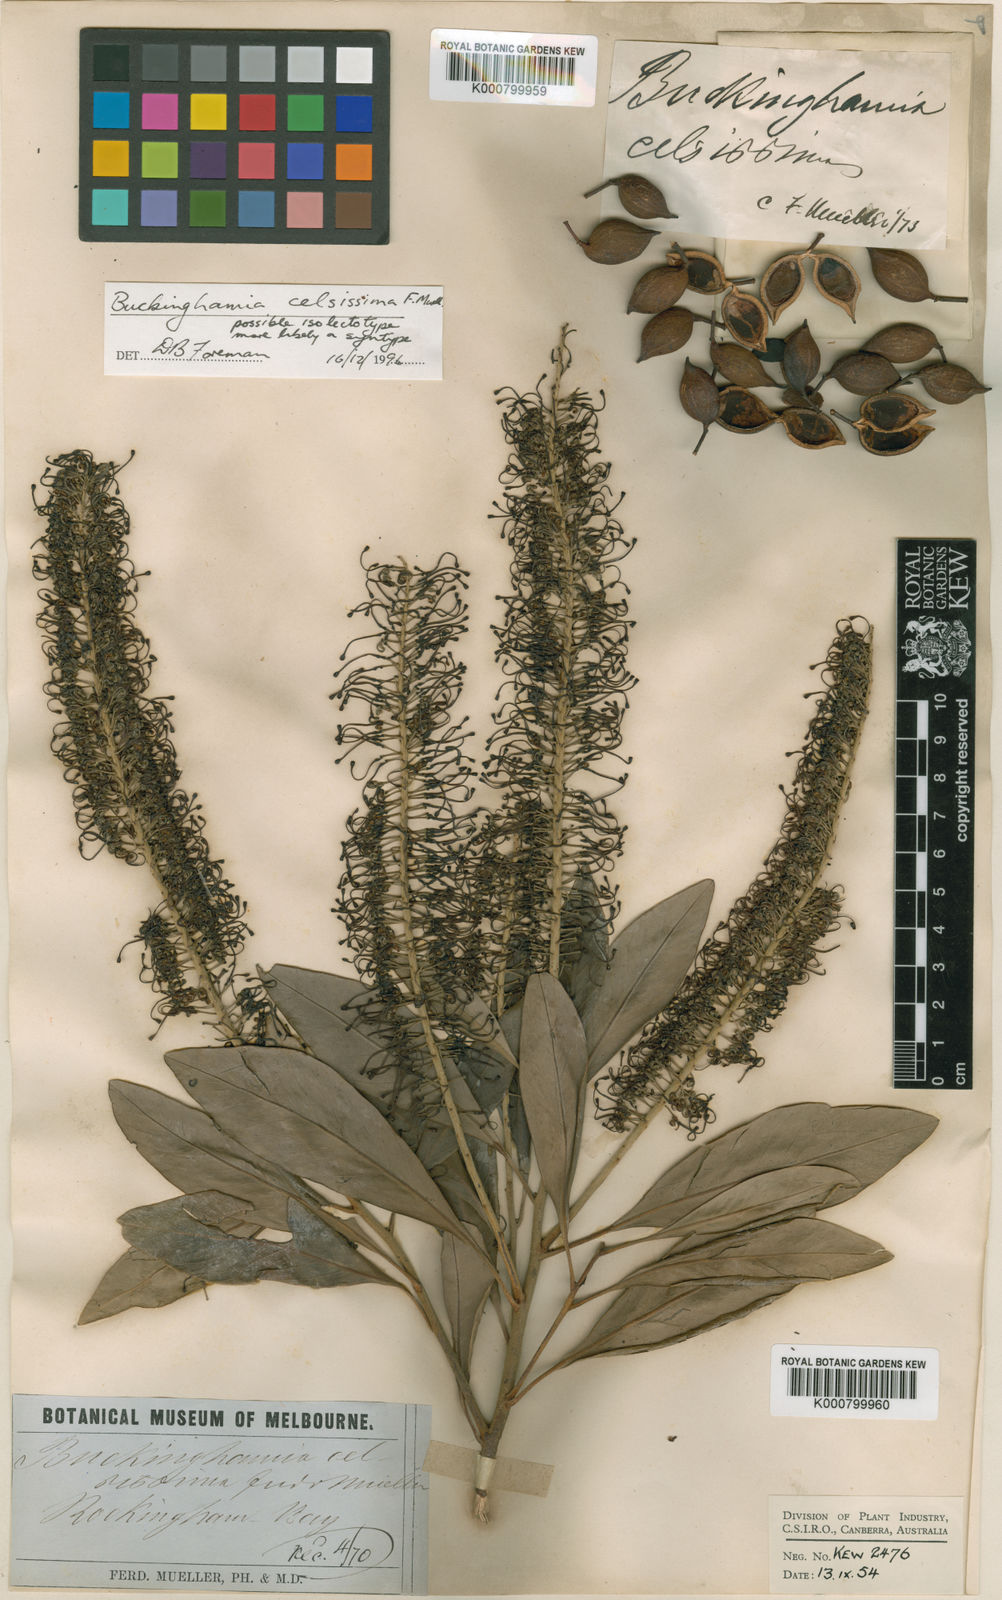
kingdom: Plantae
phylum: Tracheophyta
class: Magnoliopsida
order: Proteales
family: Proteaceae
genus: Buckinghamia
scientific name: Buckinghamia celsissima
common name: Spotted silky-oak
